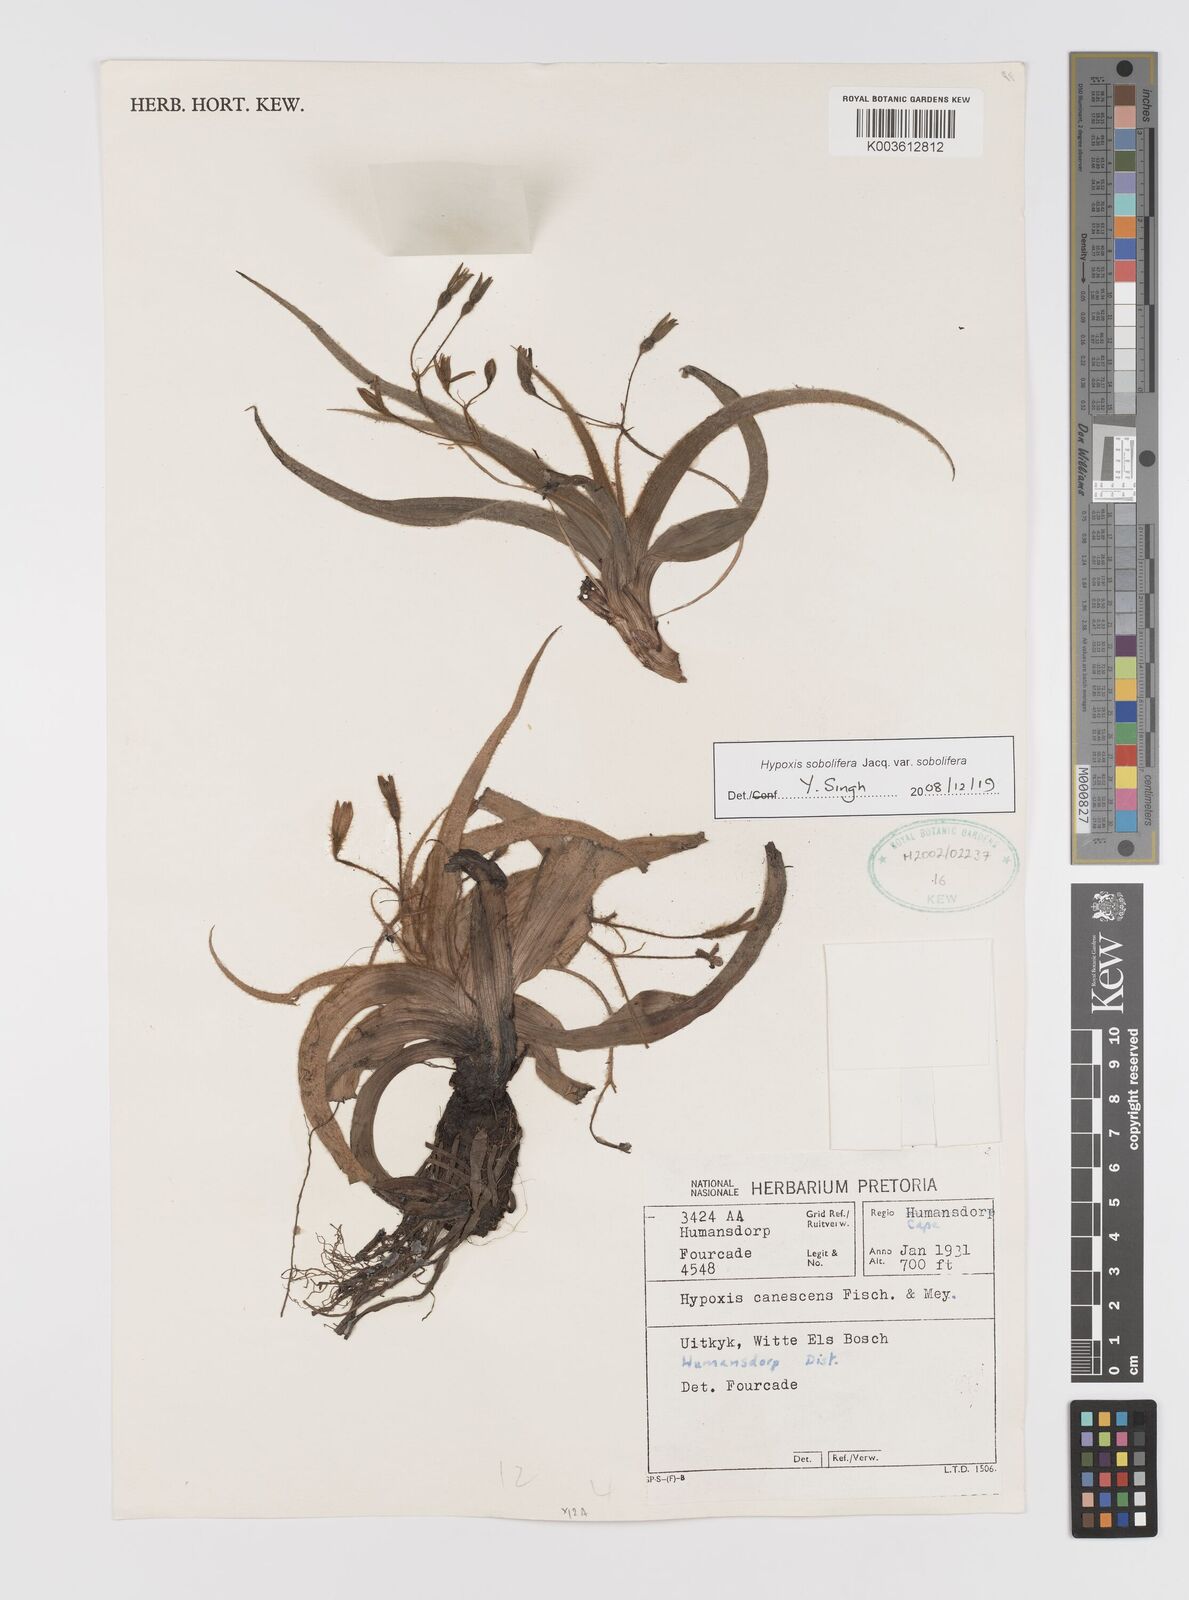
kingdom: Plantae
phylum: Tracheophyta
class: Liliopsida
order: Asparagales
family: Hypoxidaceae
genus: Hypoxis
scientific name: Hypoxis sobolifera
